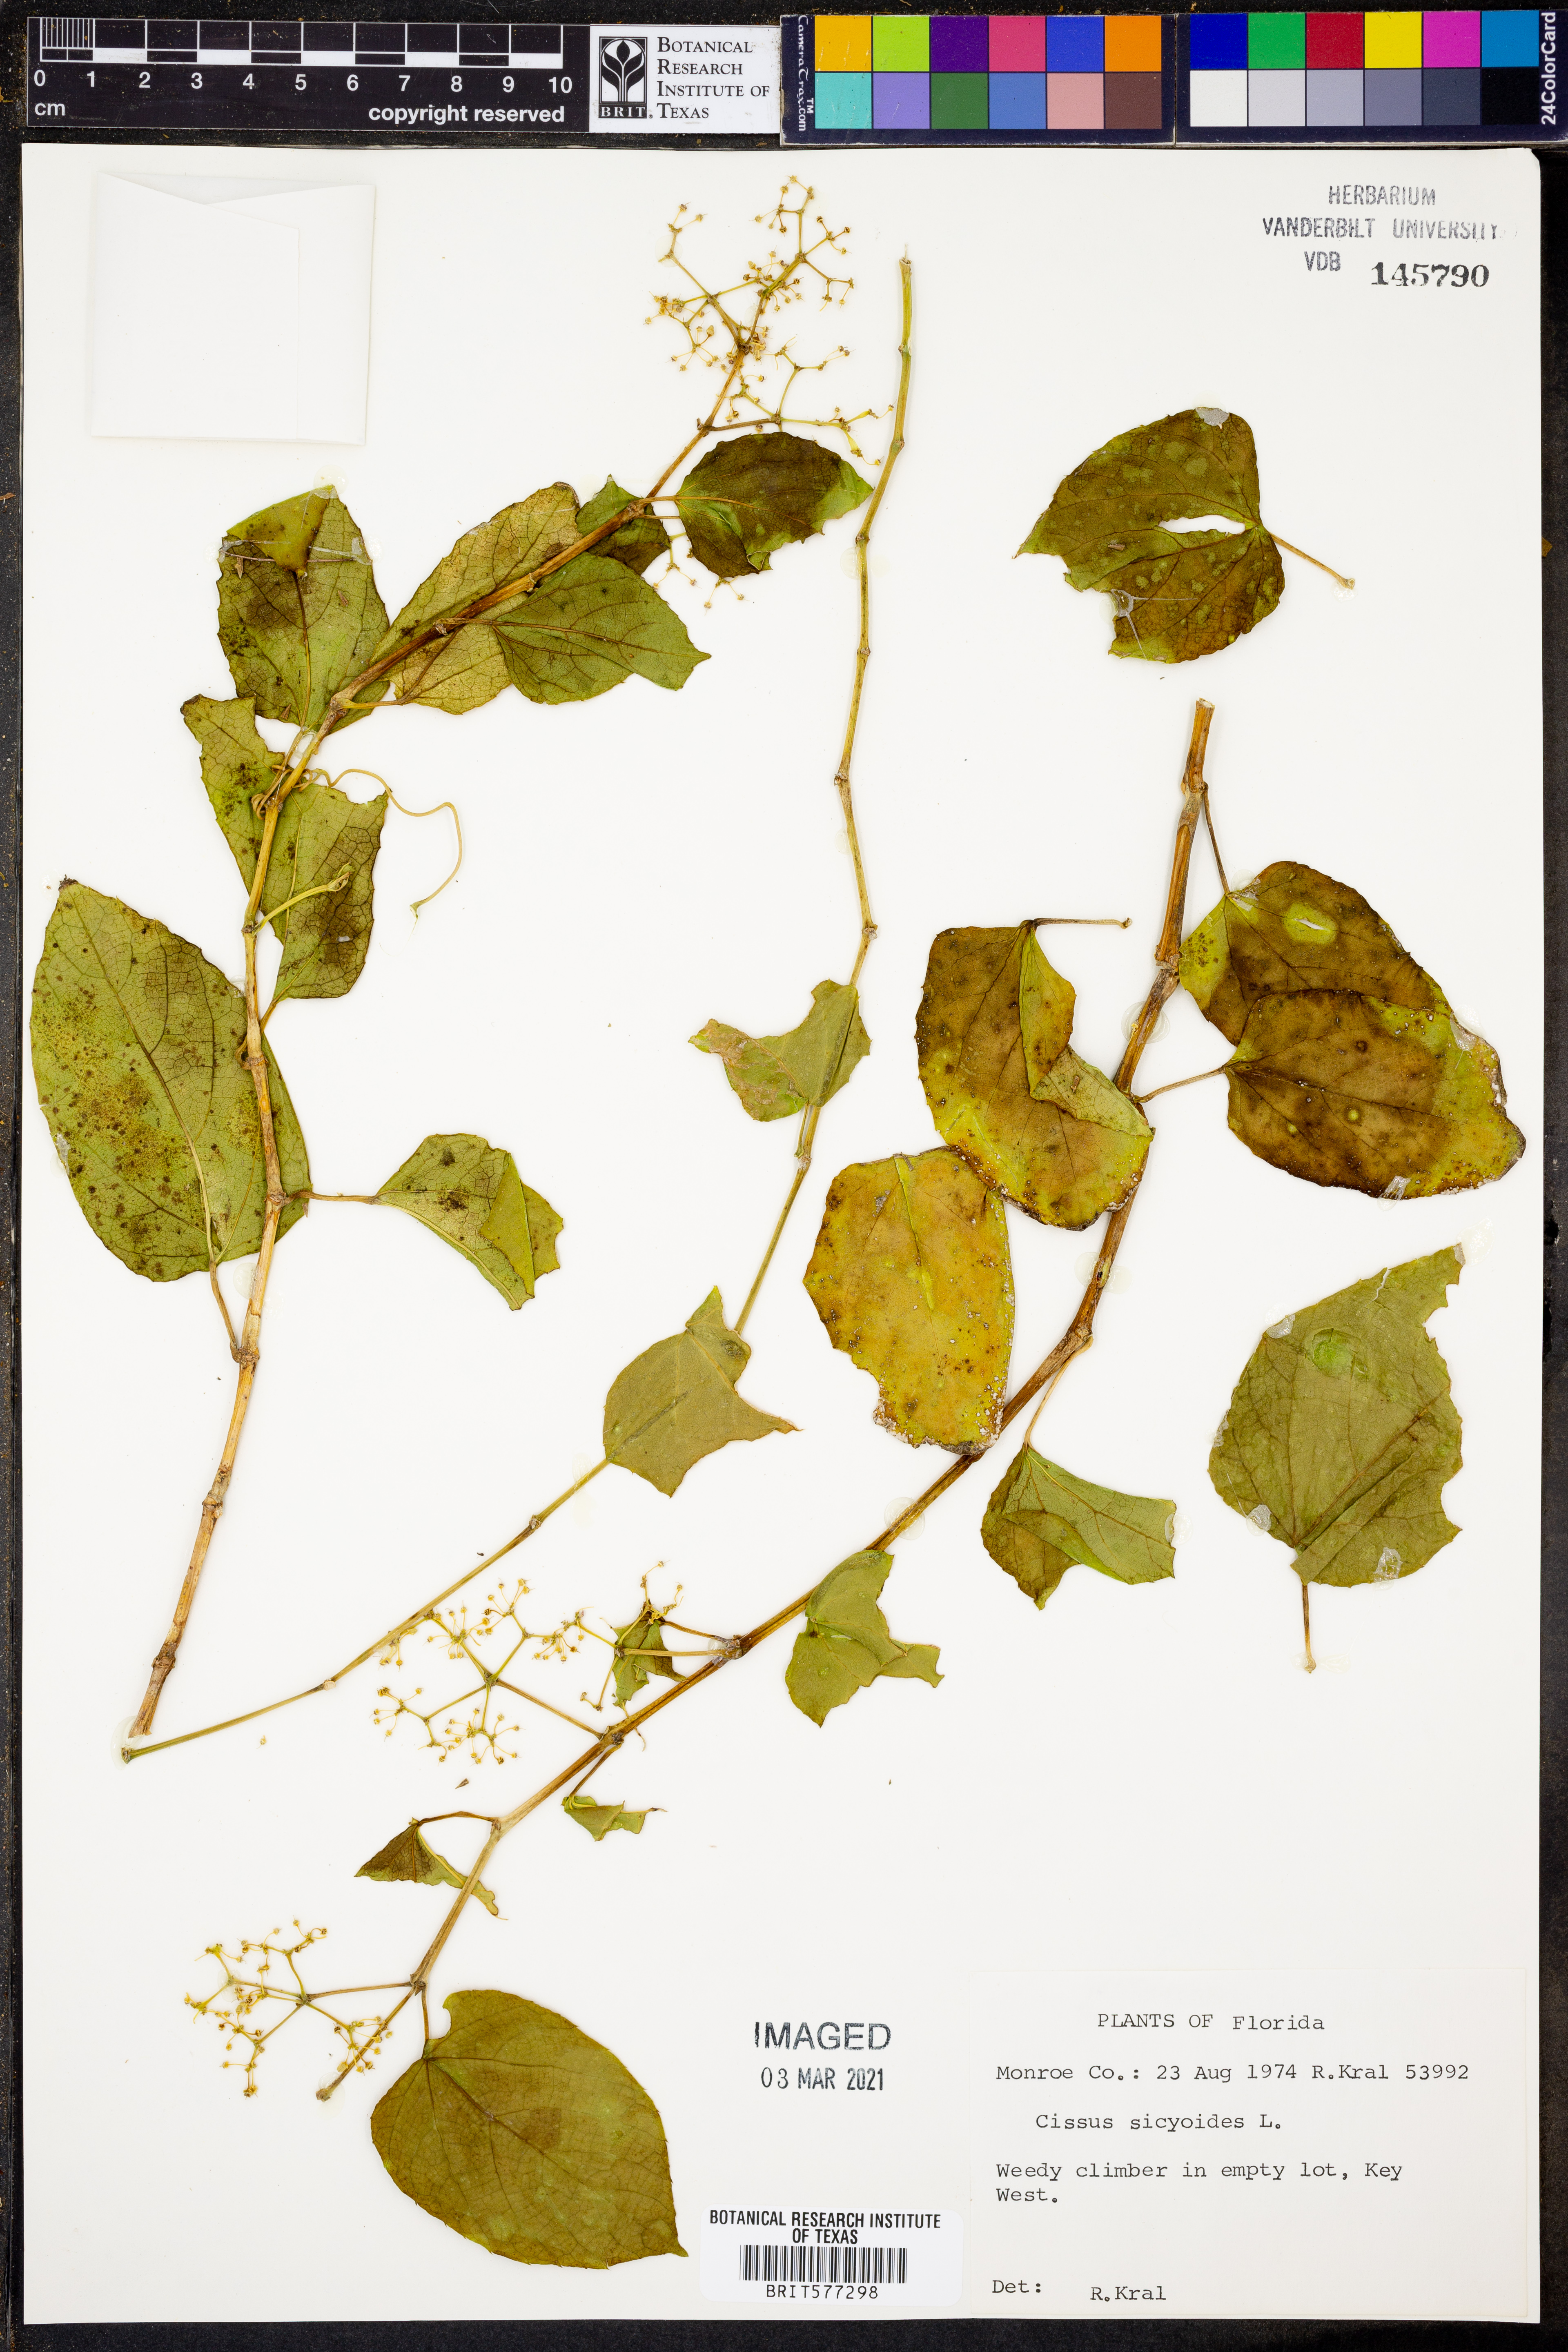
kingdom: Plantae
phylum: Tracheophyta
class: Magnoliopsida
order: Vitales
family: Vitaceae
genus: Cissus
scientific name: Cissus verticillata
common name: Princess vine
